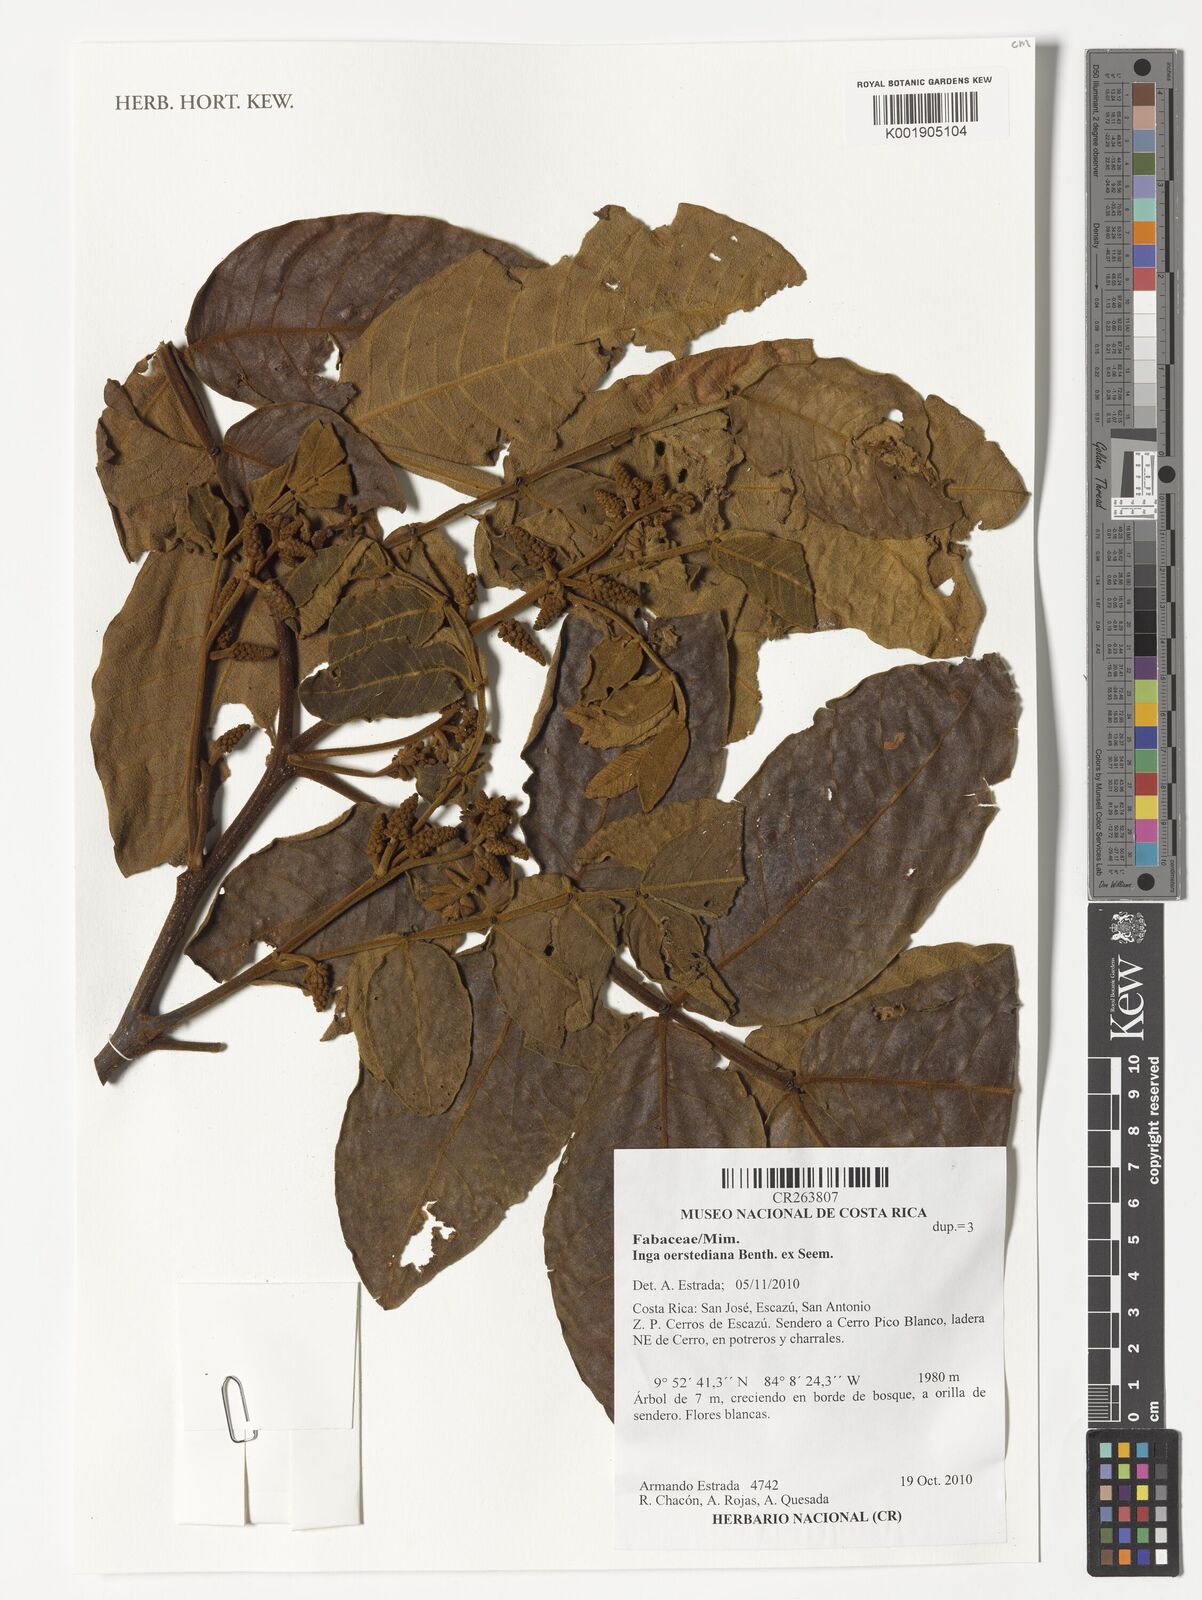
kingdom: Plantae
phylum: Tracheophyta
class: Magnoliopsida
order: Fabales
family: Fabaceae
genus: Inga
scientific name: Inga oerstediana
